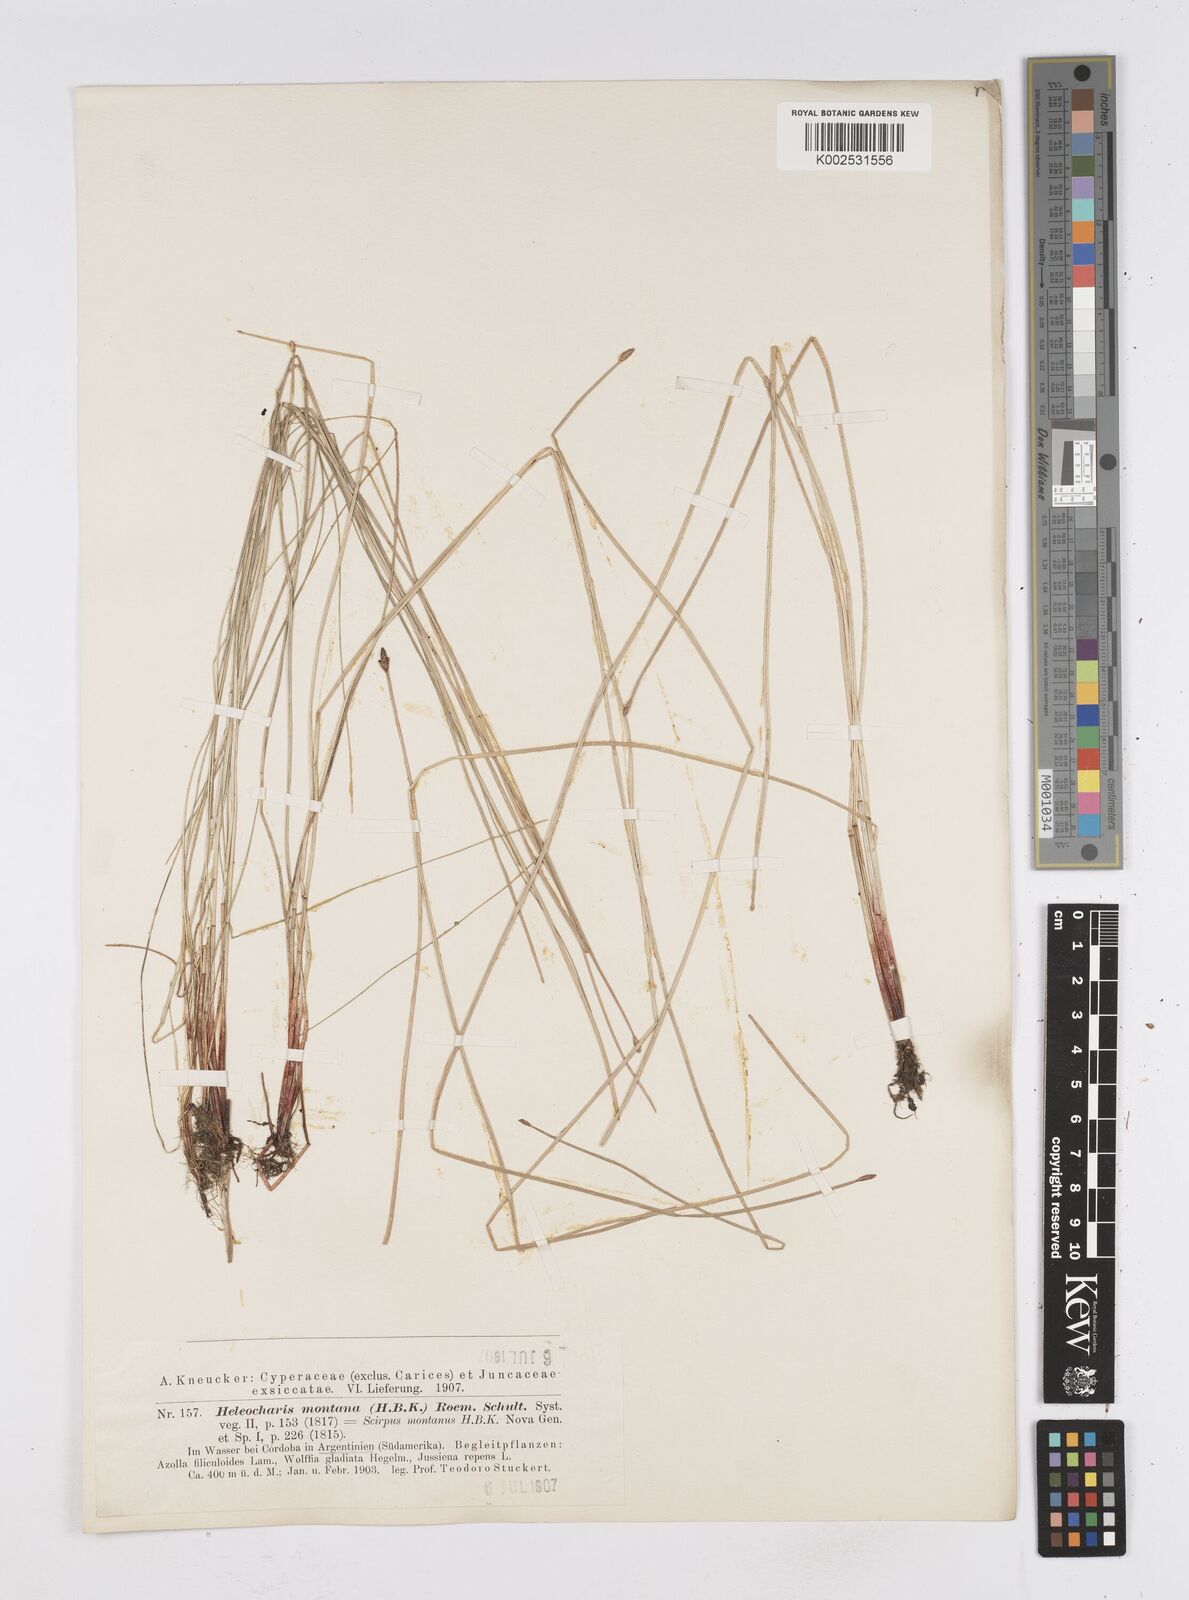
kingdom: Plantae
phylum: Tracheophyta
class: Liliopsida
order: Poales
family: Cyperaceae
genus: Eleocharis
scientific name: Eleocharis montana
